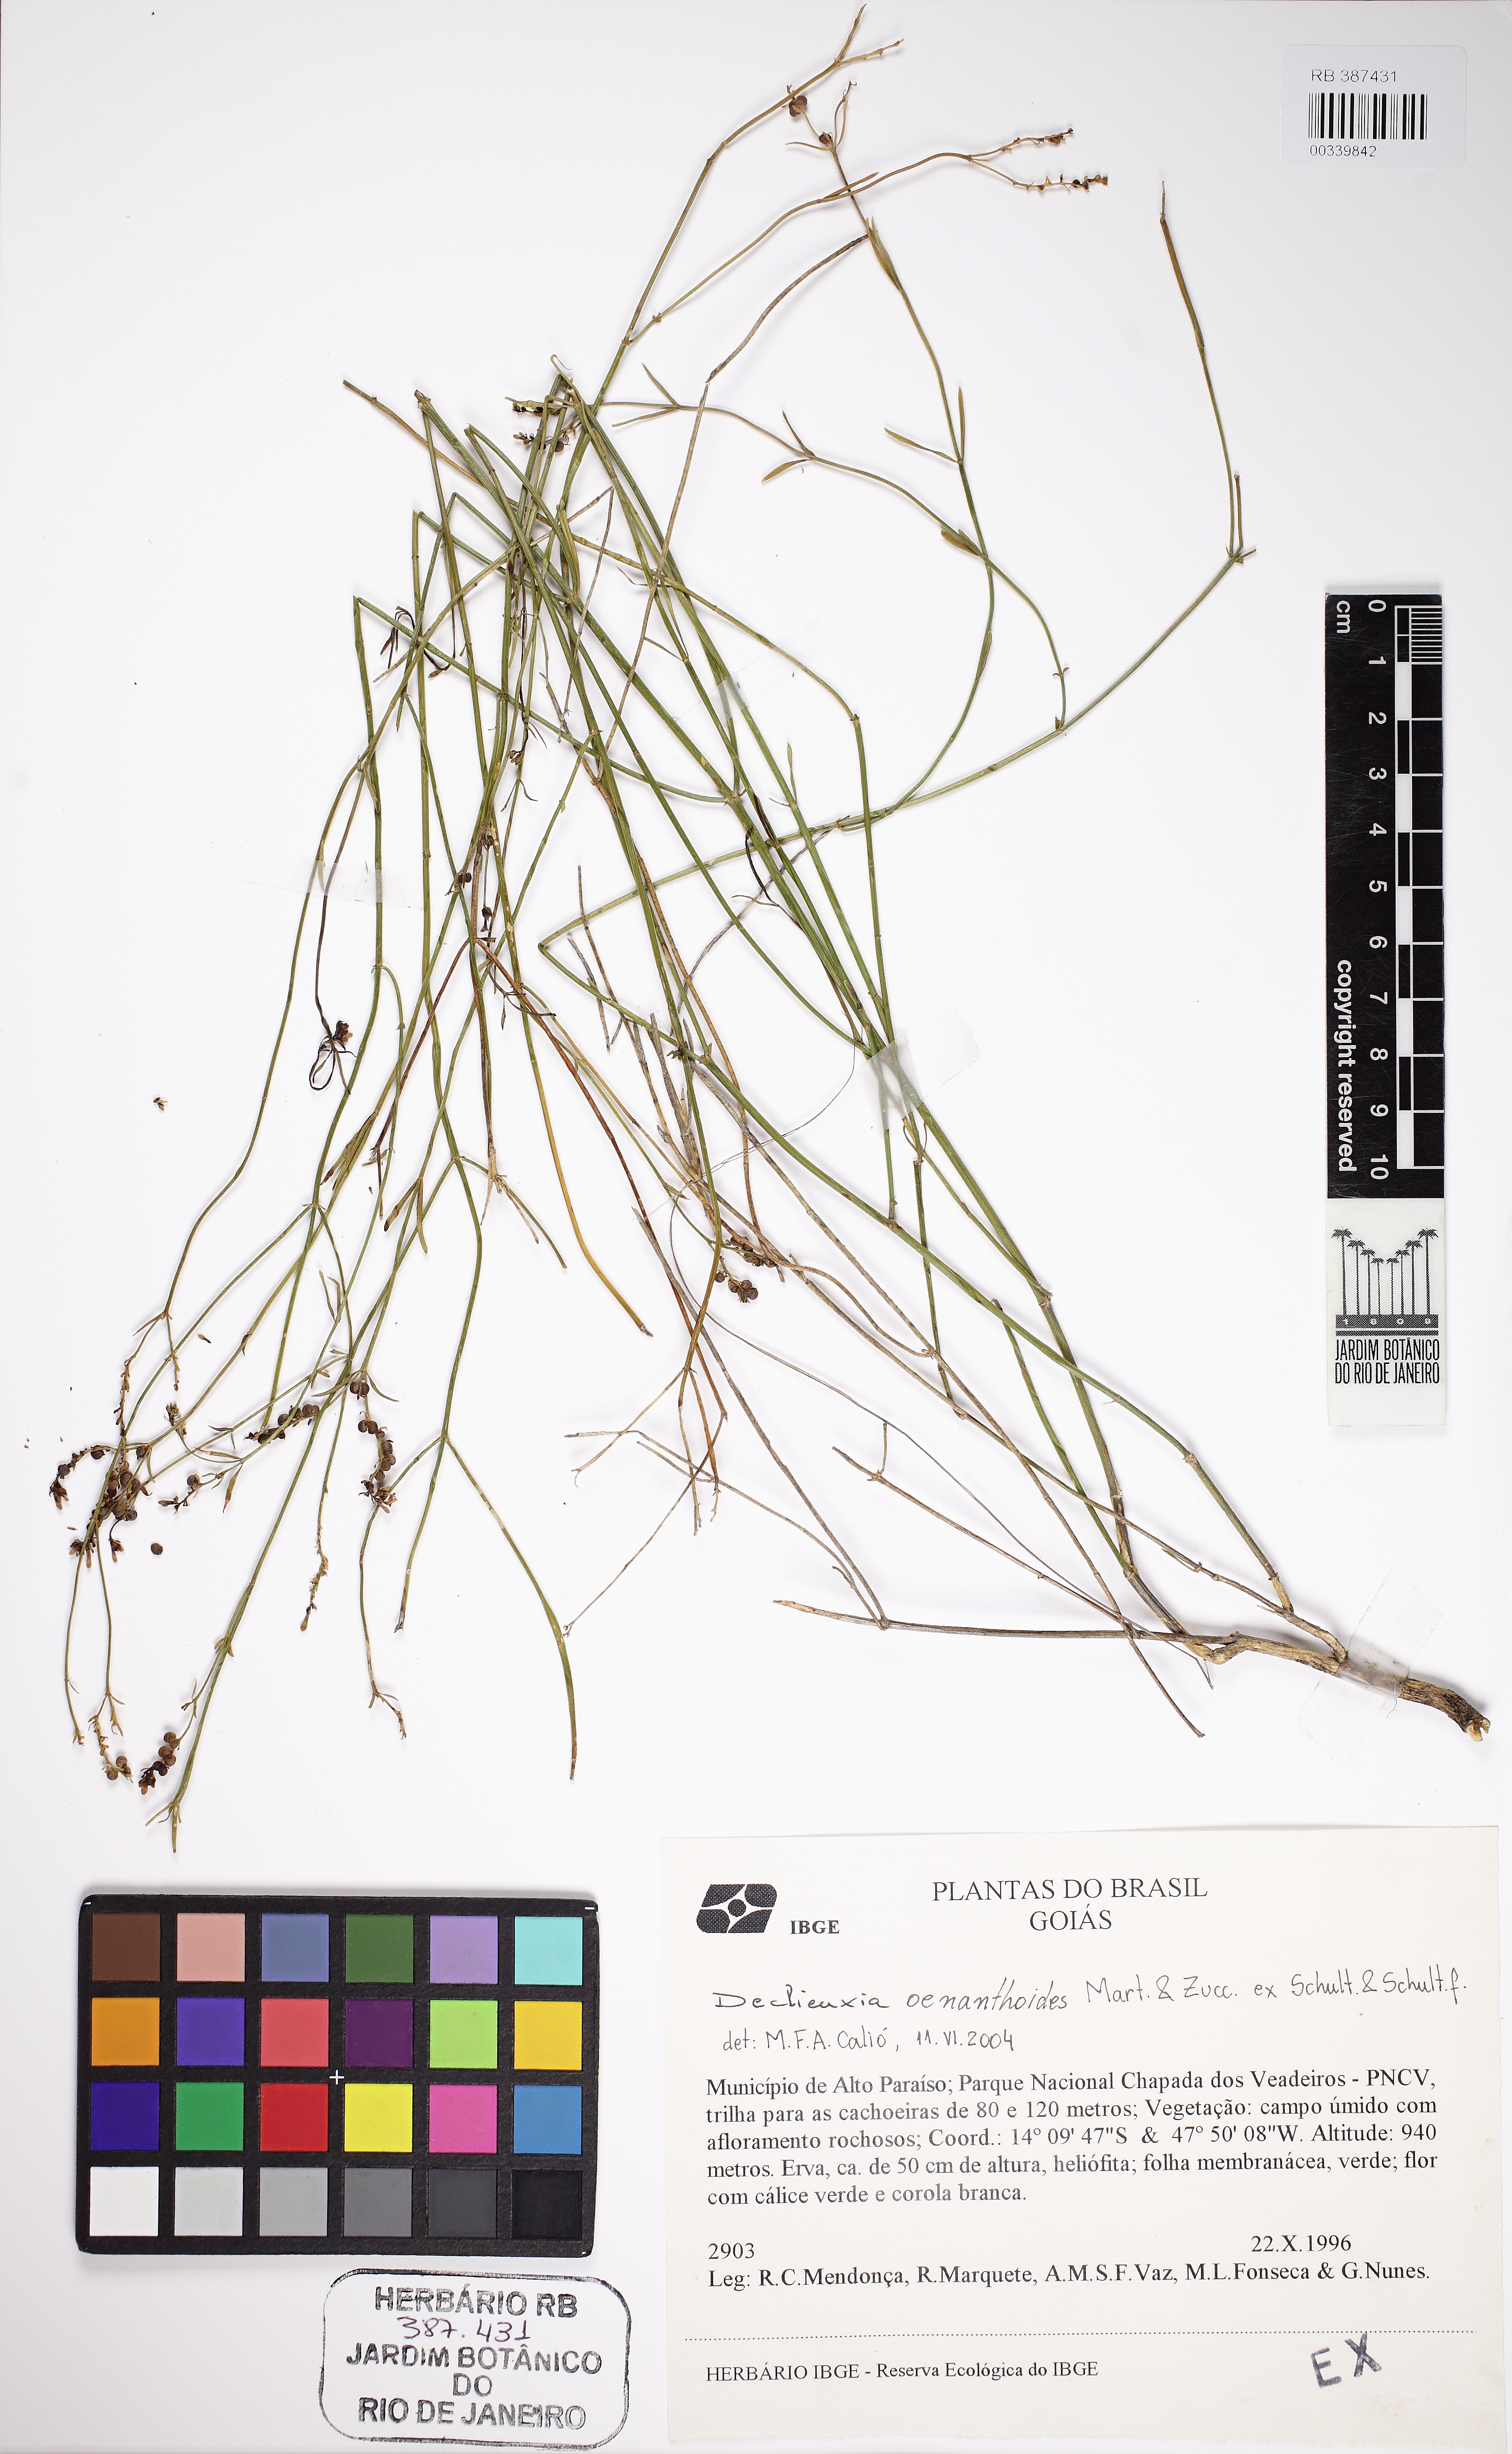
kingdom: Plantae
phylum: Tracheophyta
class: Magnoliopsida
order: Gentianales
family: Rubiaceae
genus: Declieuxia
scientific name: Declieuxia oenanthoides
